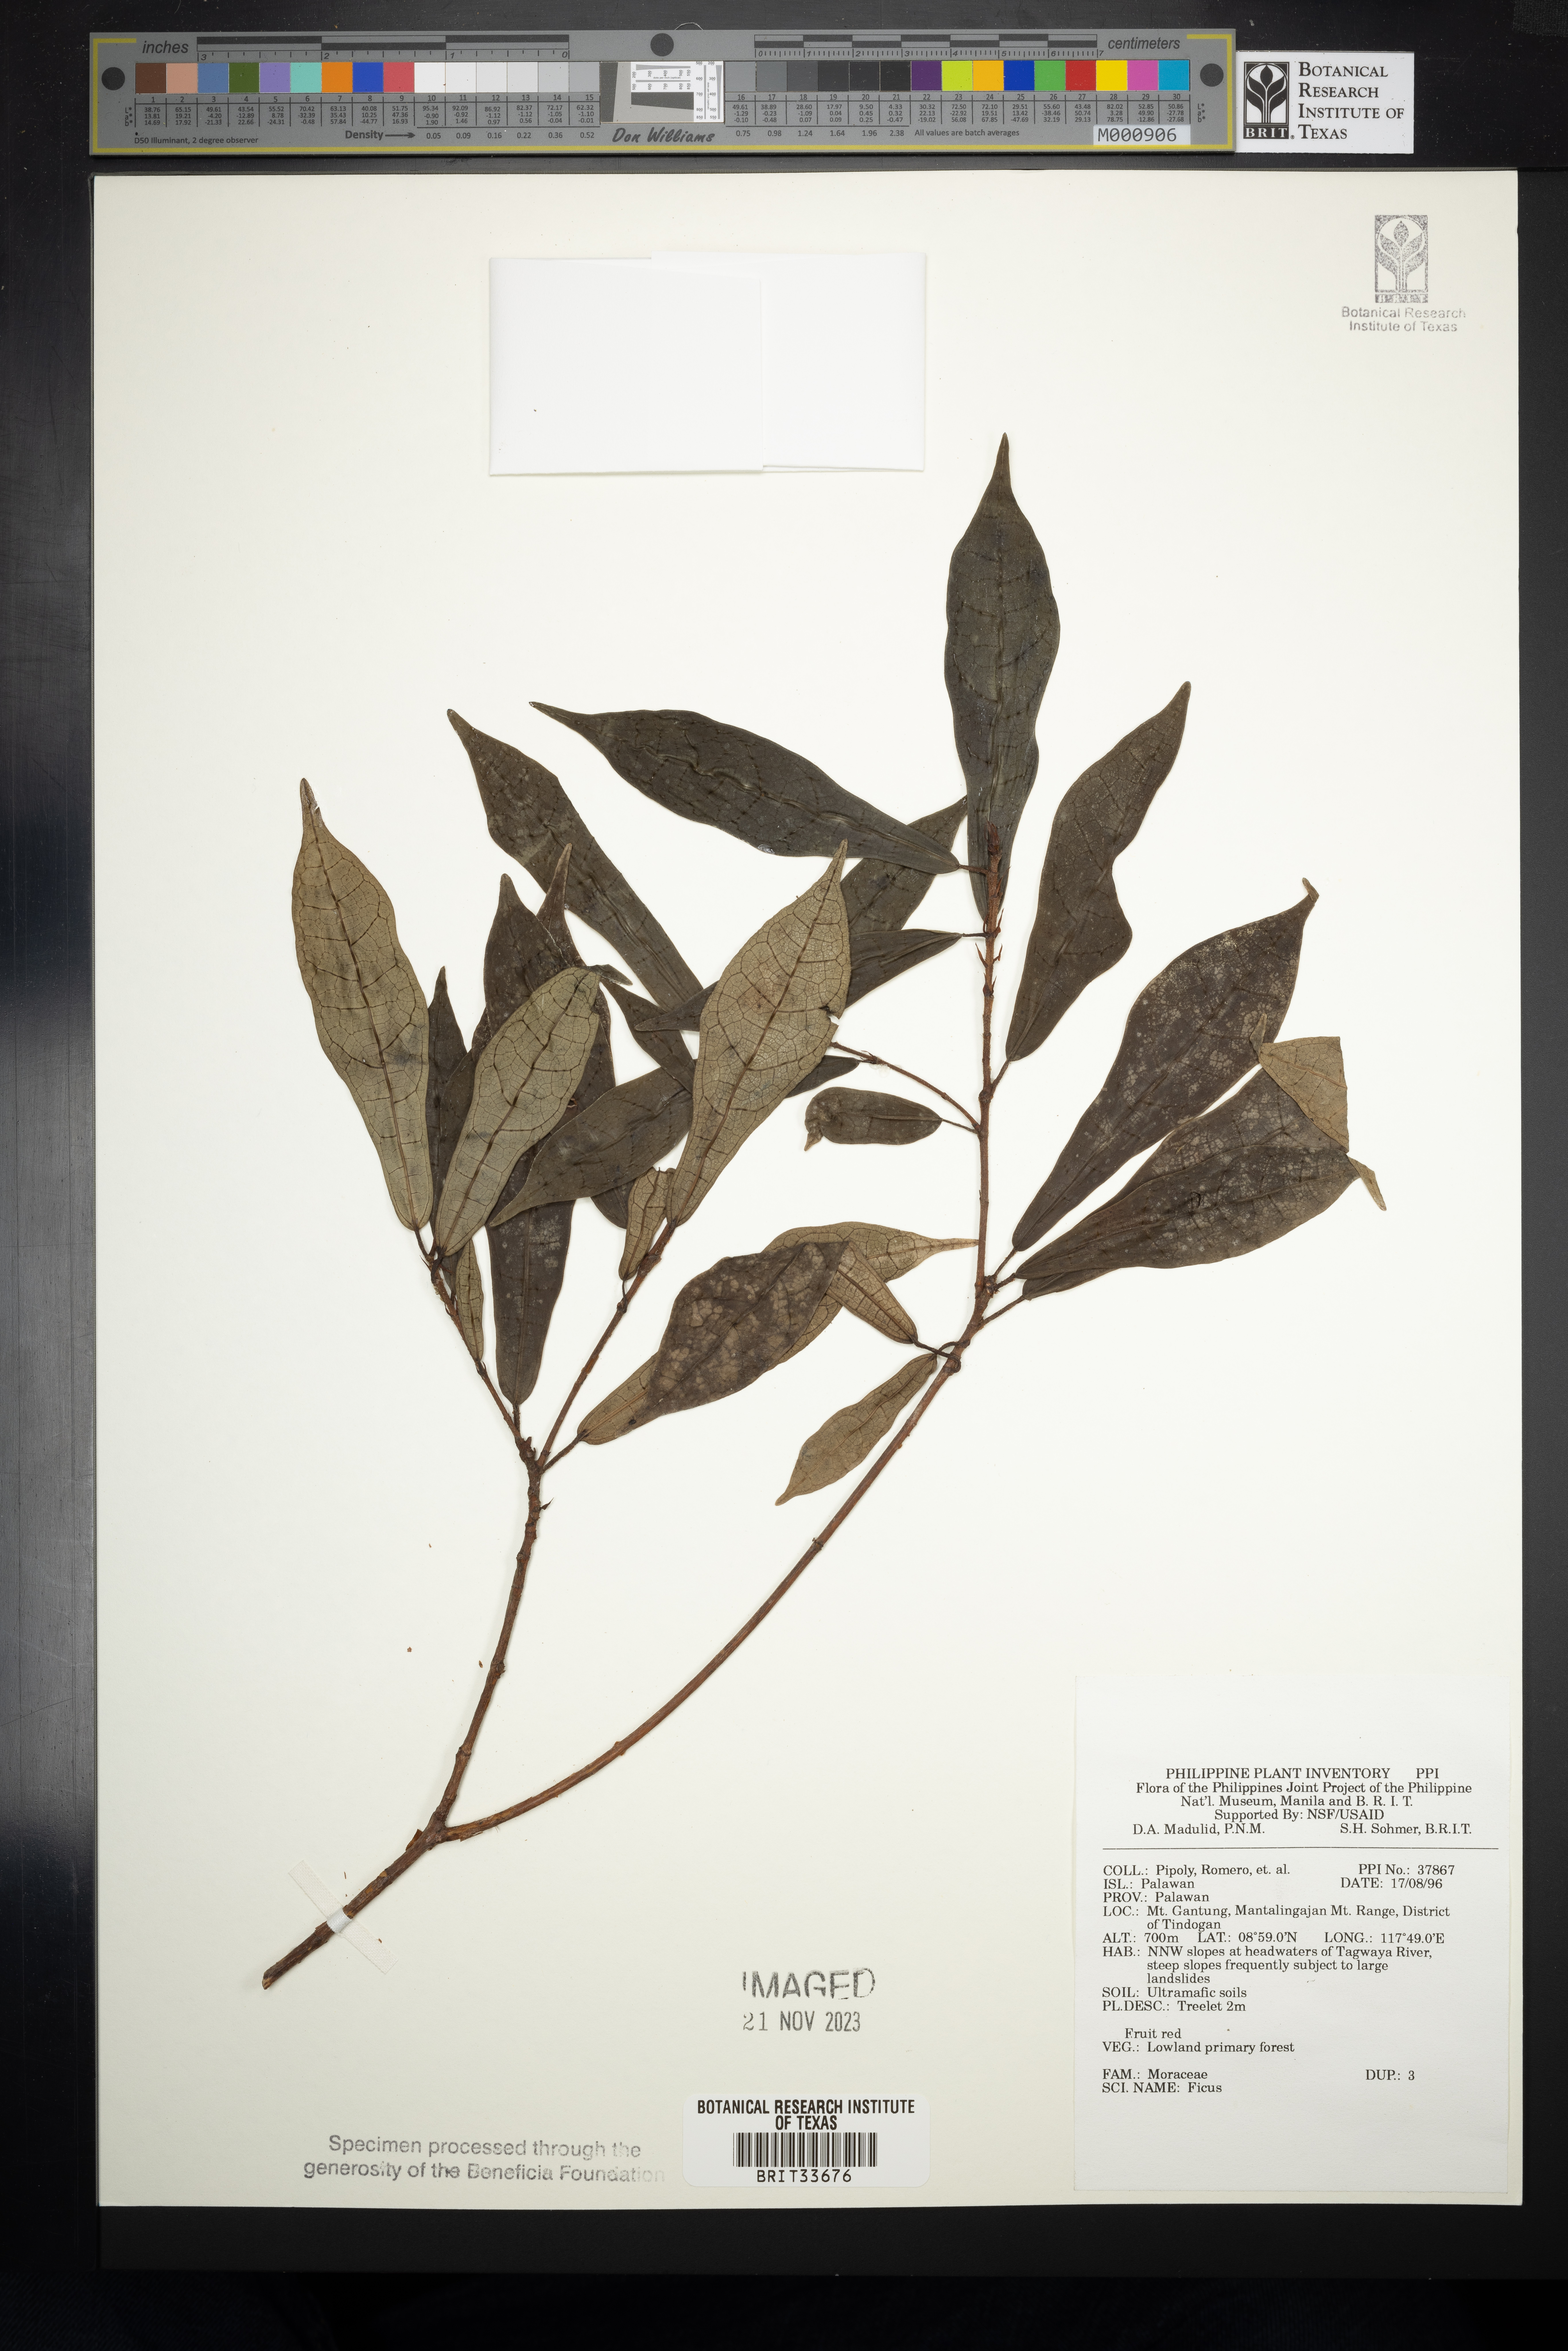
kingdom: Plantae
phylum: Tracheophyta
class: Magnoliopsida
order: Rosales
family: Moraceae
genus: Ficus
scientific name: Ficus
